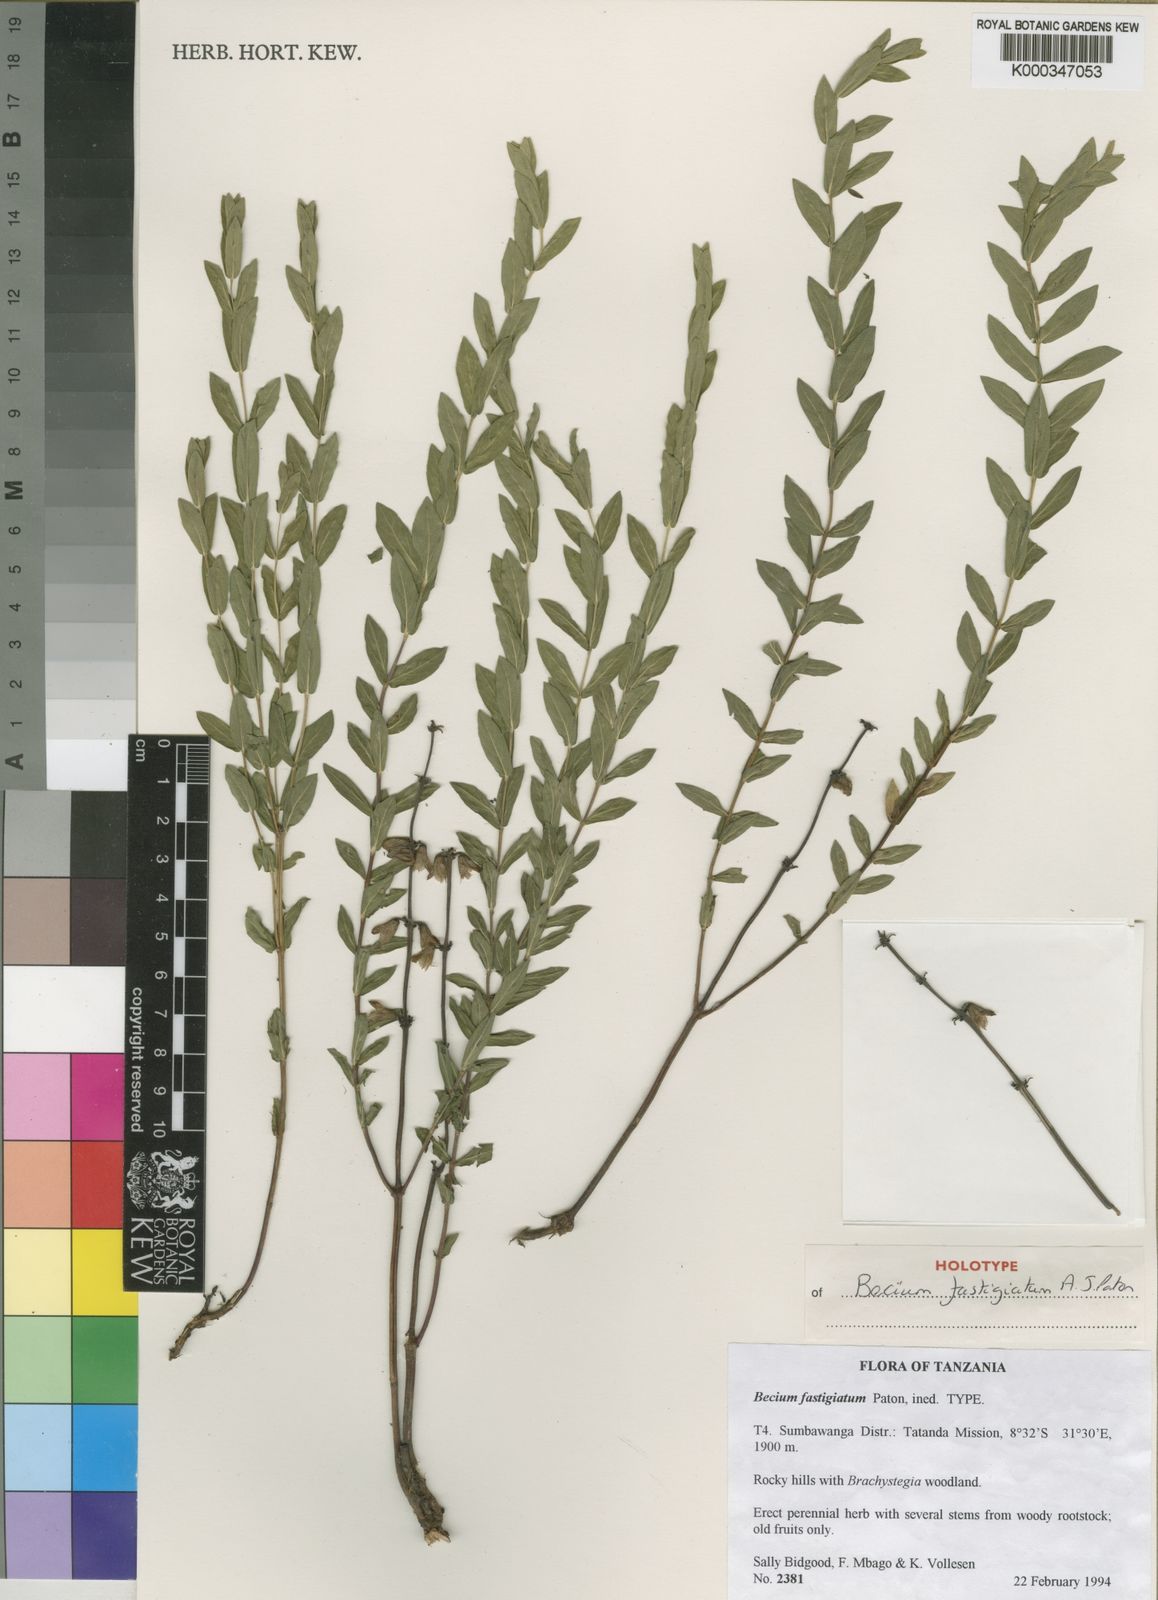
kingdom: Plantae
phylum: Tracheophyta
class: Magnoliopsida
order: Lamiales
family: Lamiaceae
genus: Ocimum
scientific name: Ocimum amicorum
